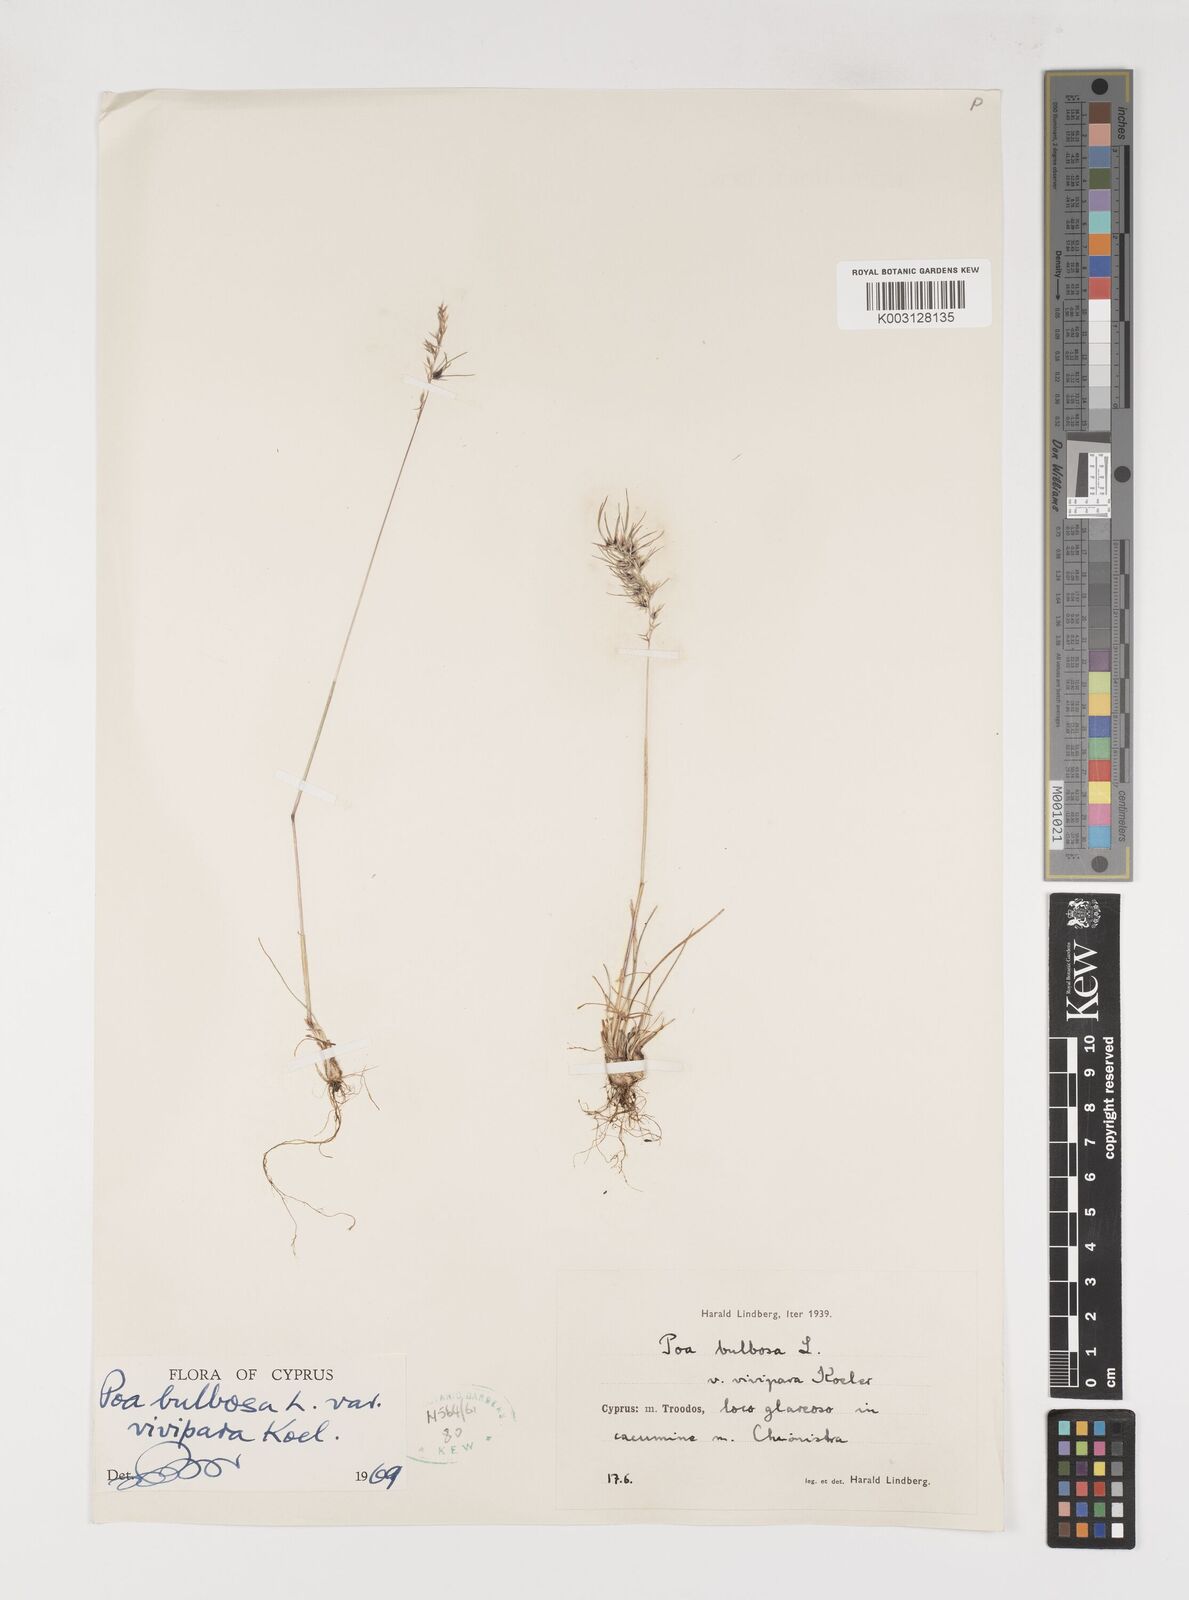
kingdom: Plantae
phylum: Tracheophyta
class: Liliopsida
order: Poales
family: Poaceae
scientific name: Poaceae
